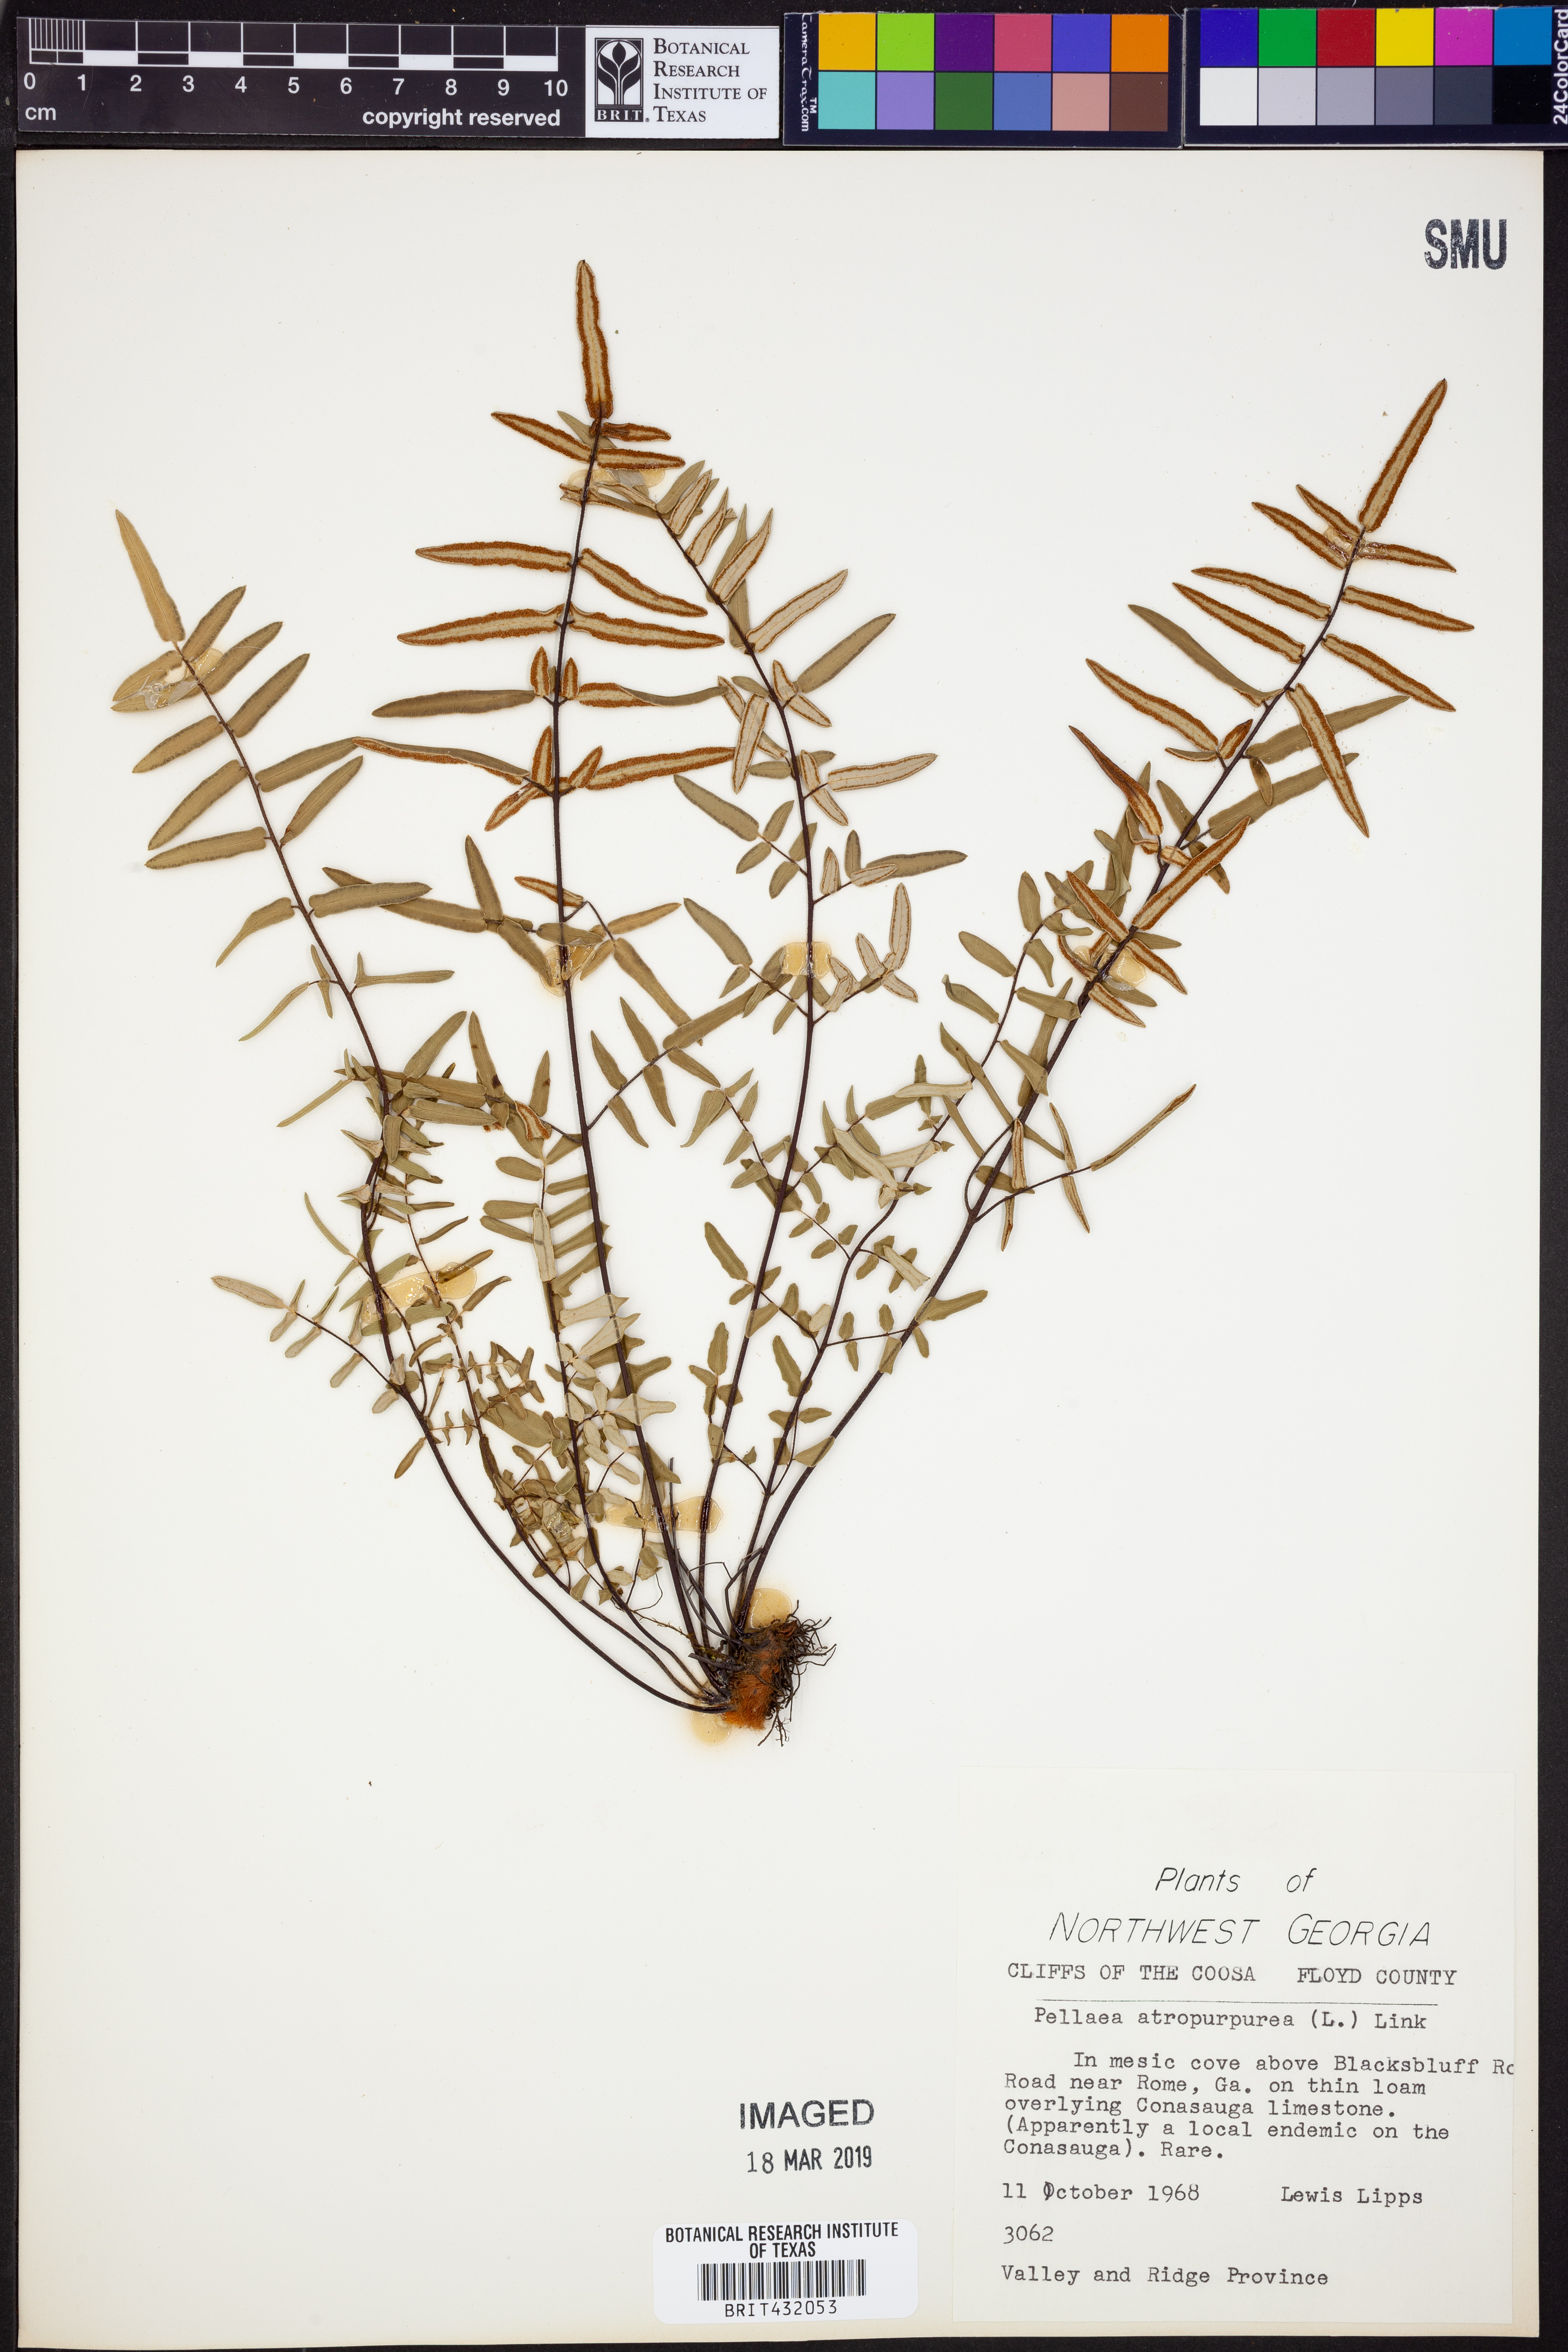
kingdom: Plantae
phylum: Tracheophyta
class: Polypodiopsida
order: Polypodiales
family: Pteridaceae
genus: Pellaea
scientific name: Pellaea atropurpurea
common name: Hairy cliffbrake
